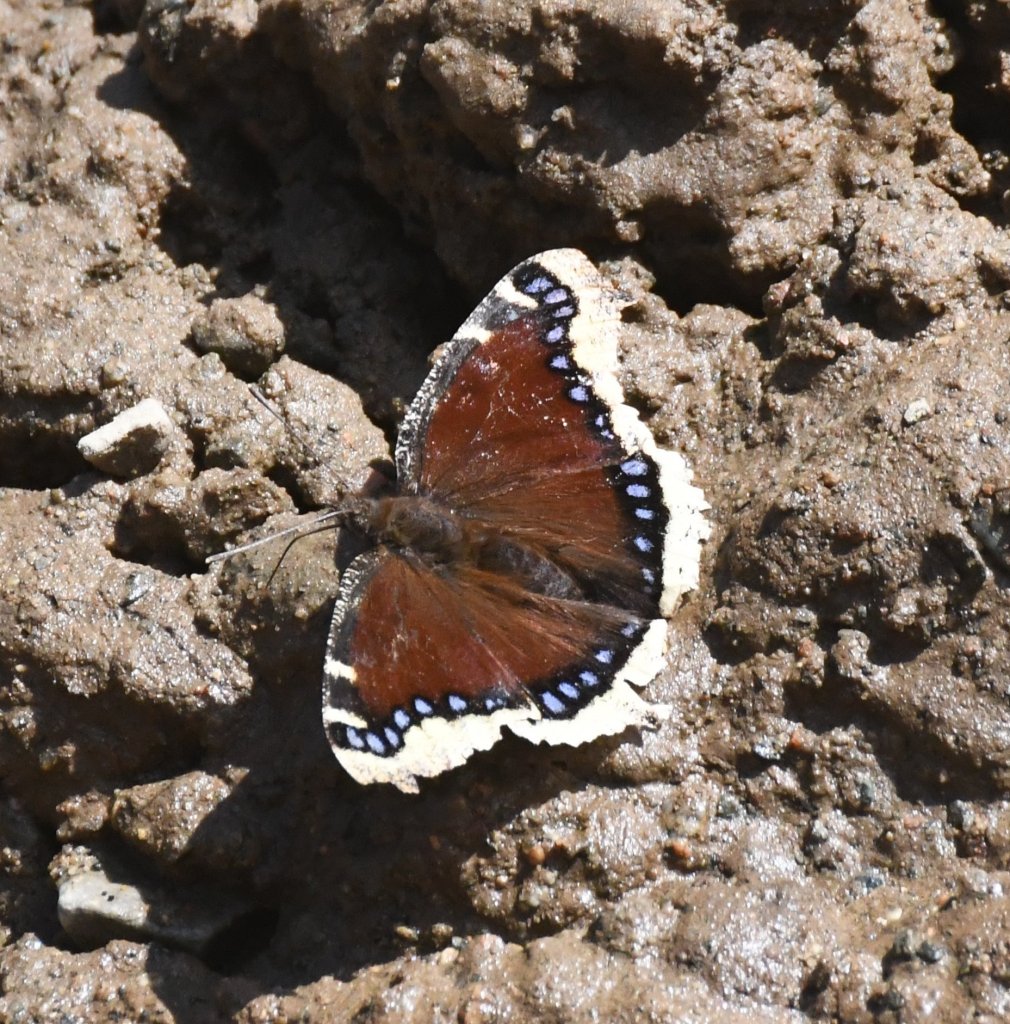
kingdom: Animalia
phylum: Arthropoda
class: Insecta
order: Lepidoptera
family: Nymphalidae
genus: Nymphalis
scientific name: Nymphalis antiopa
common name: Mourning Cloak
